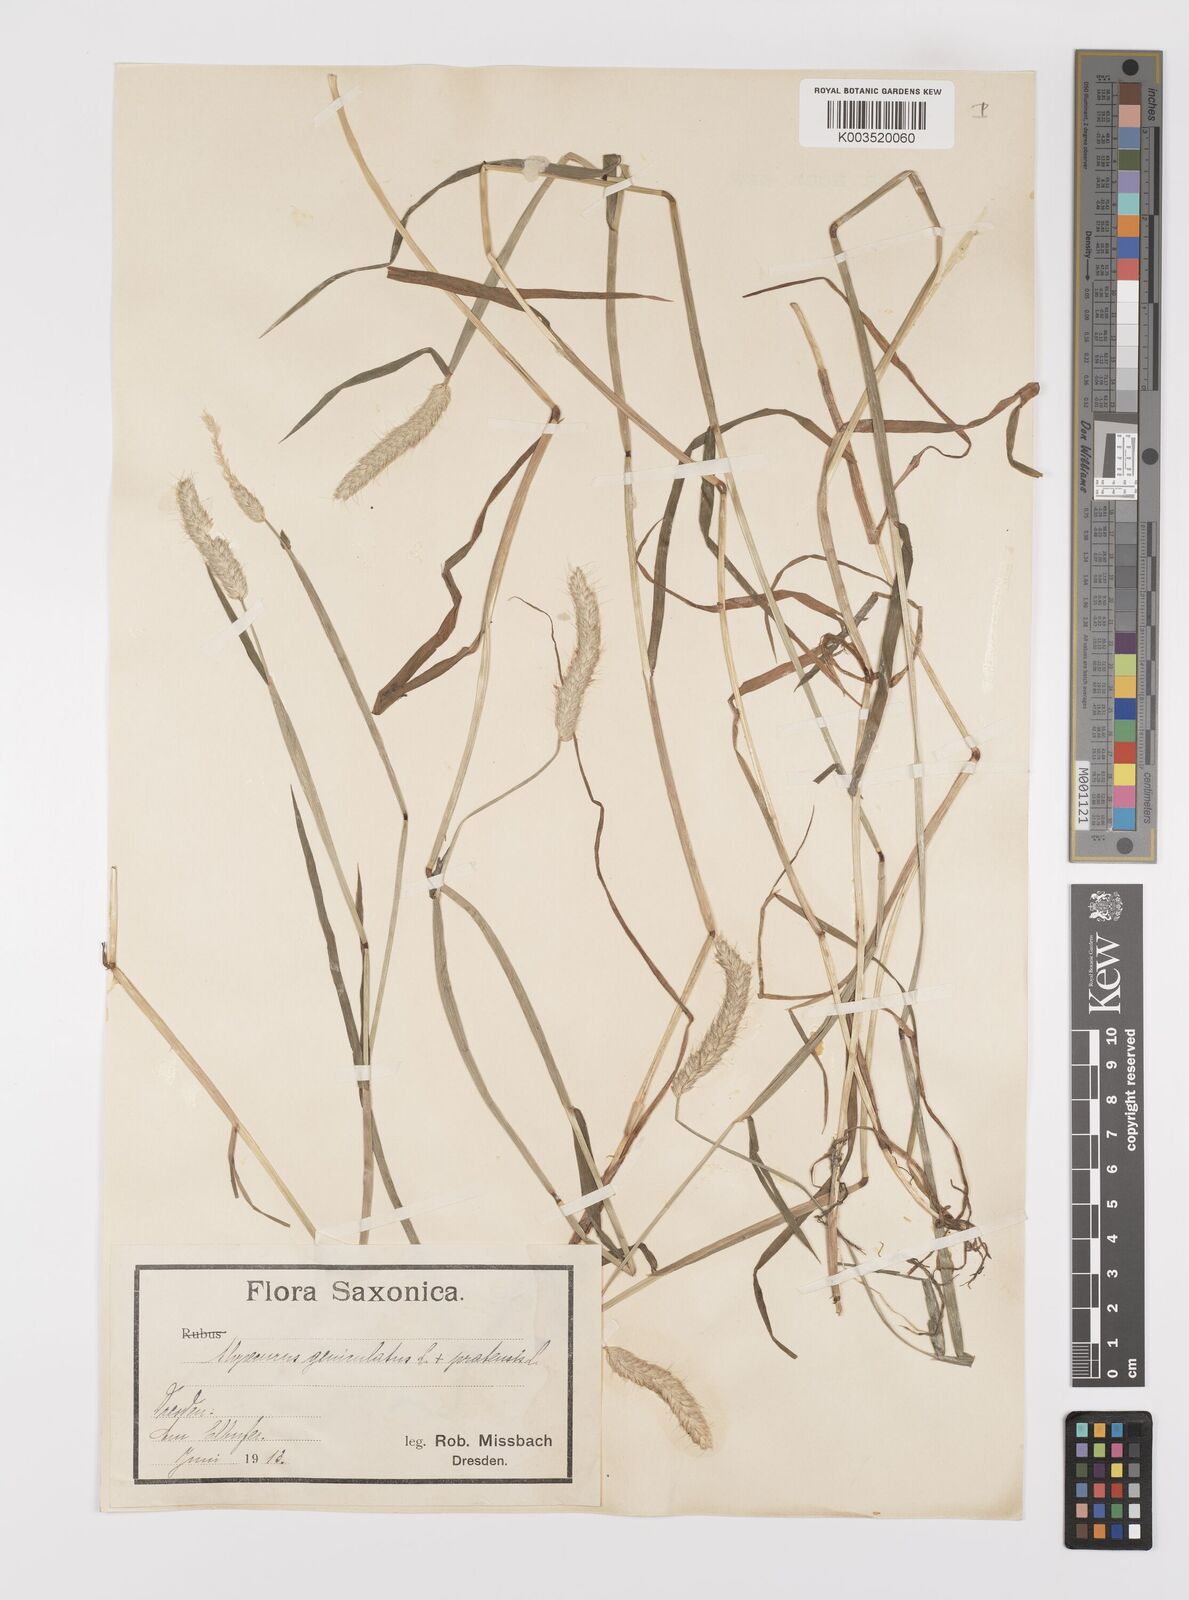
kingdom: Plantae
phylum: Tracheophyta
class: Liliopsida
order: Poales
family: Poaceae
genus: Alopecurus
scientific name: Alopecurus brachystylus
